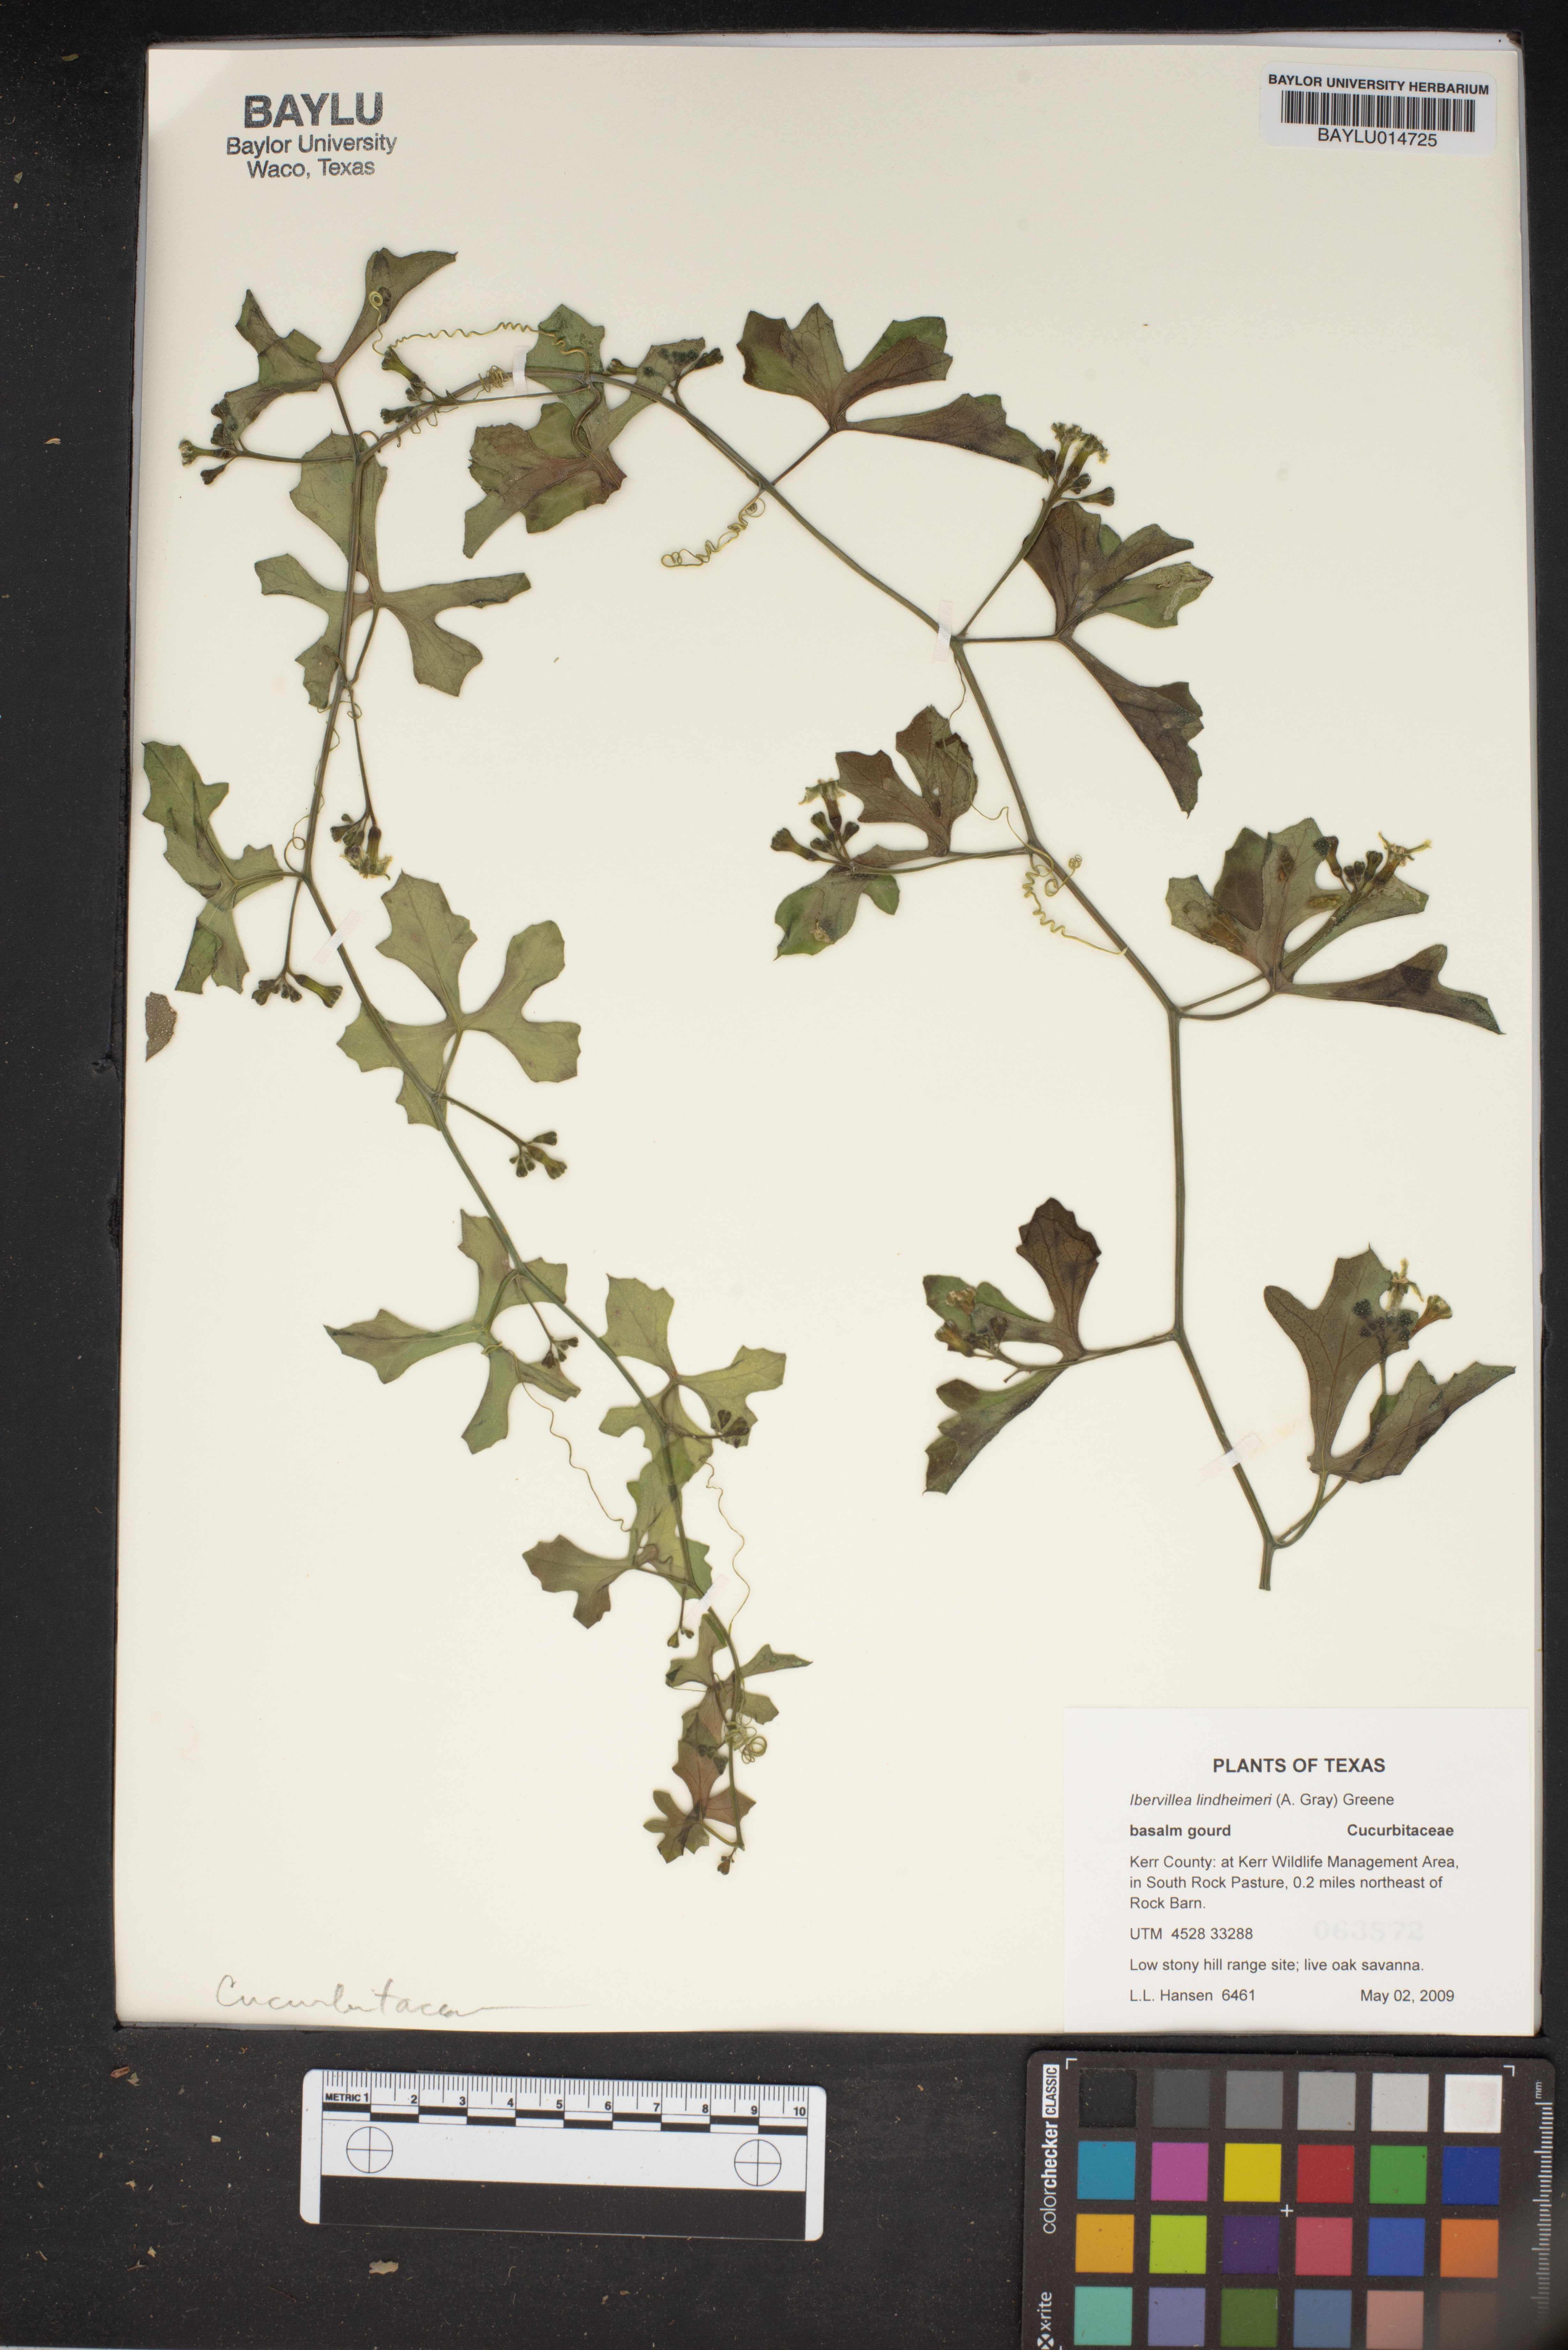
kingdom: Plantae
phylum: Tracheophyta
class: Magnoliopsida
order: Cucurbitales
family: Cucurbitaceae
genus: Ibervillea
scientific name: Ibervillea lindheimeri
